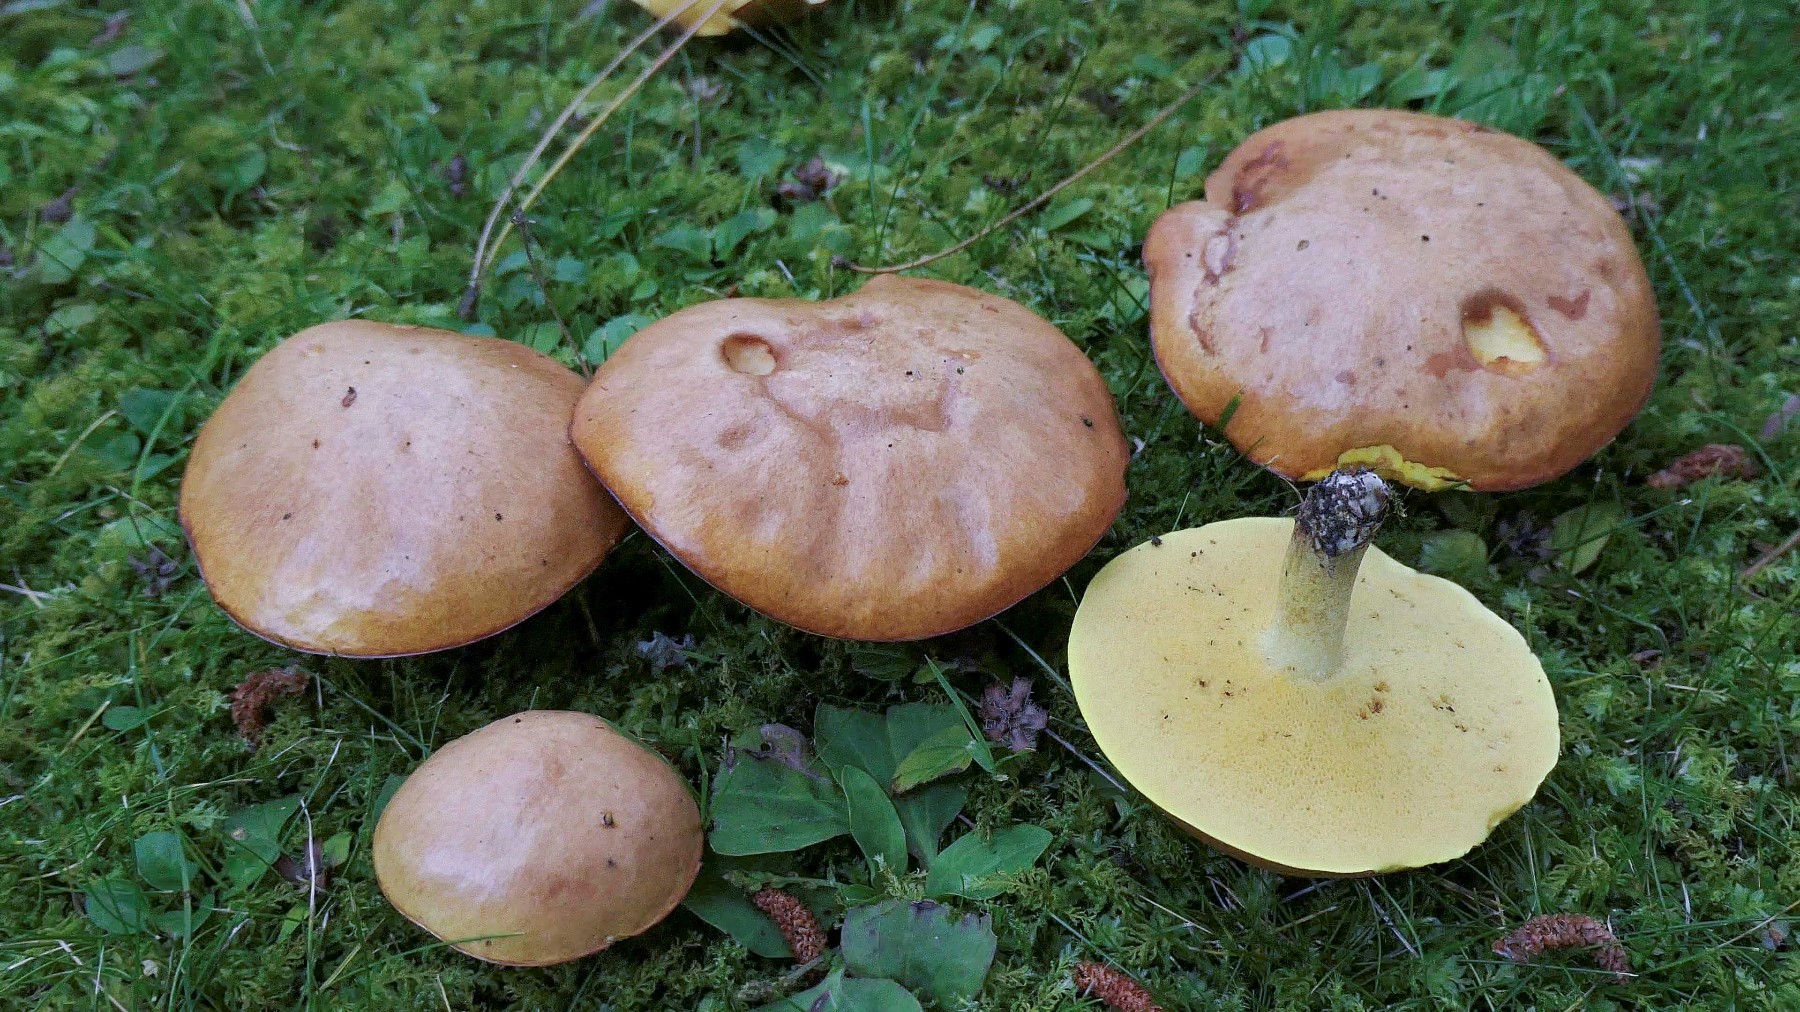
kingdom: Fungi
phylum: Basidiomycota
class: Agaricomycetes
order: Boletales
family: Suillaceae
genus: Suillus
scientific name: Suillus granulatus
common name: kornet slimrørhat
